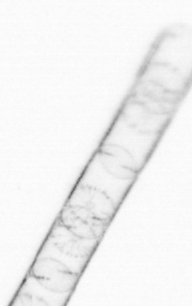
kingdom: Chromista
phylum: Ochrophyta
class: Bacillariophyceae
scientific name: Bacillariophyceae
